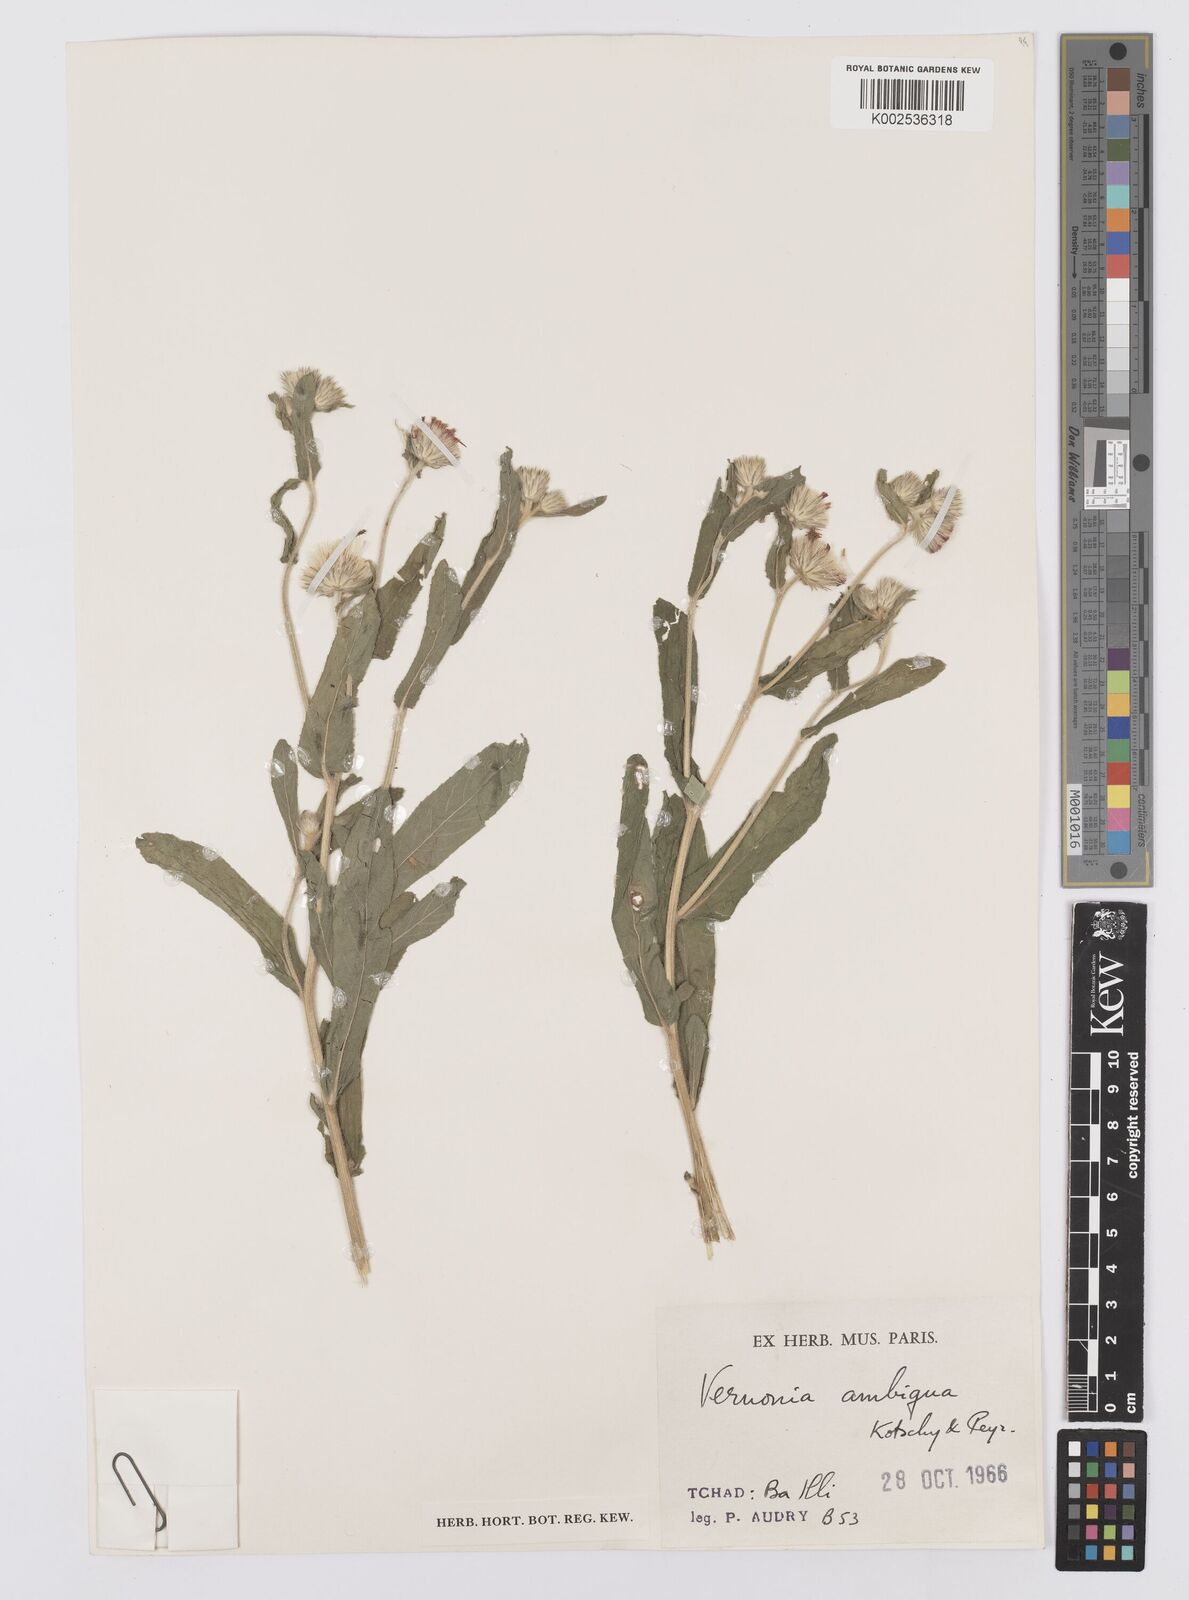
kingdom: Plantae
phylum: Tracheophyta
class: Magnoliopsida
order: Asterales
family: Asteraceae
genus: Vernoniastrum
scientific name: Vernoniastrum ambiguum
